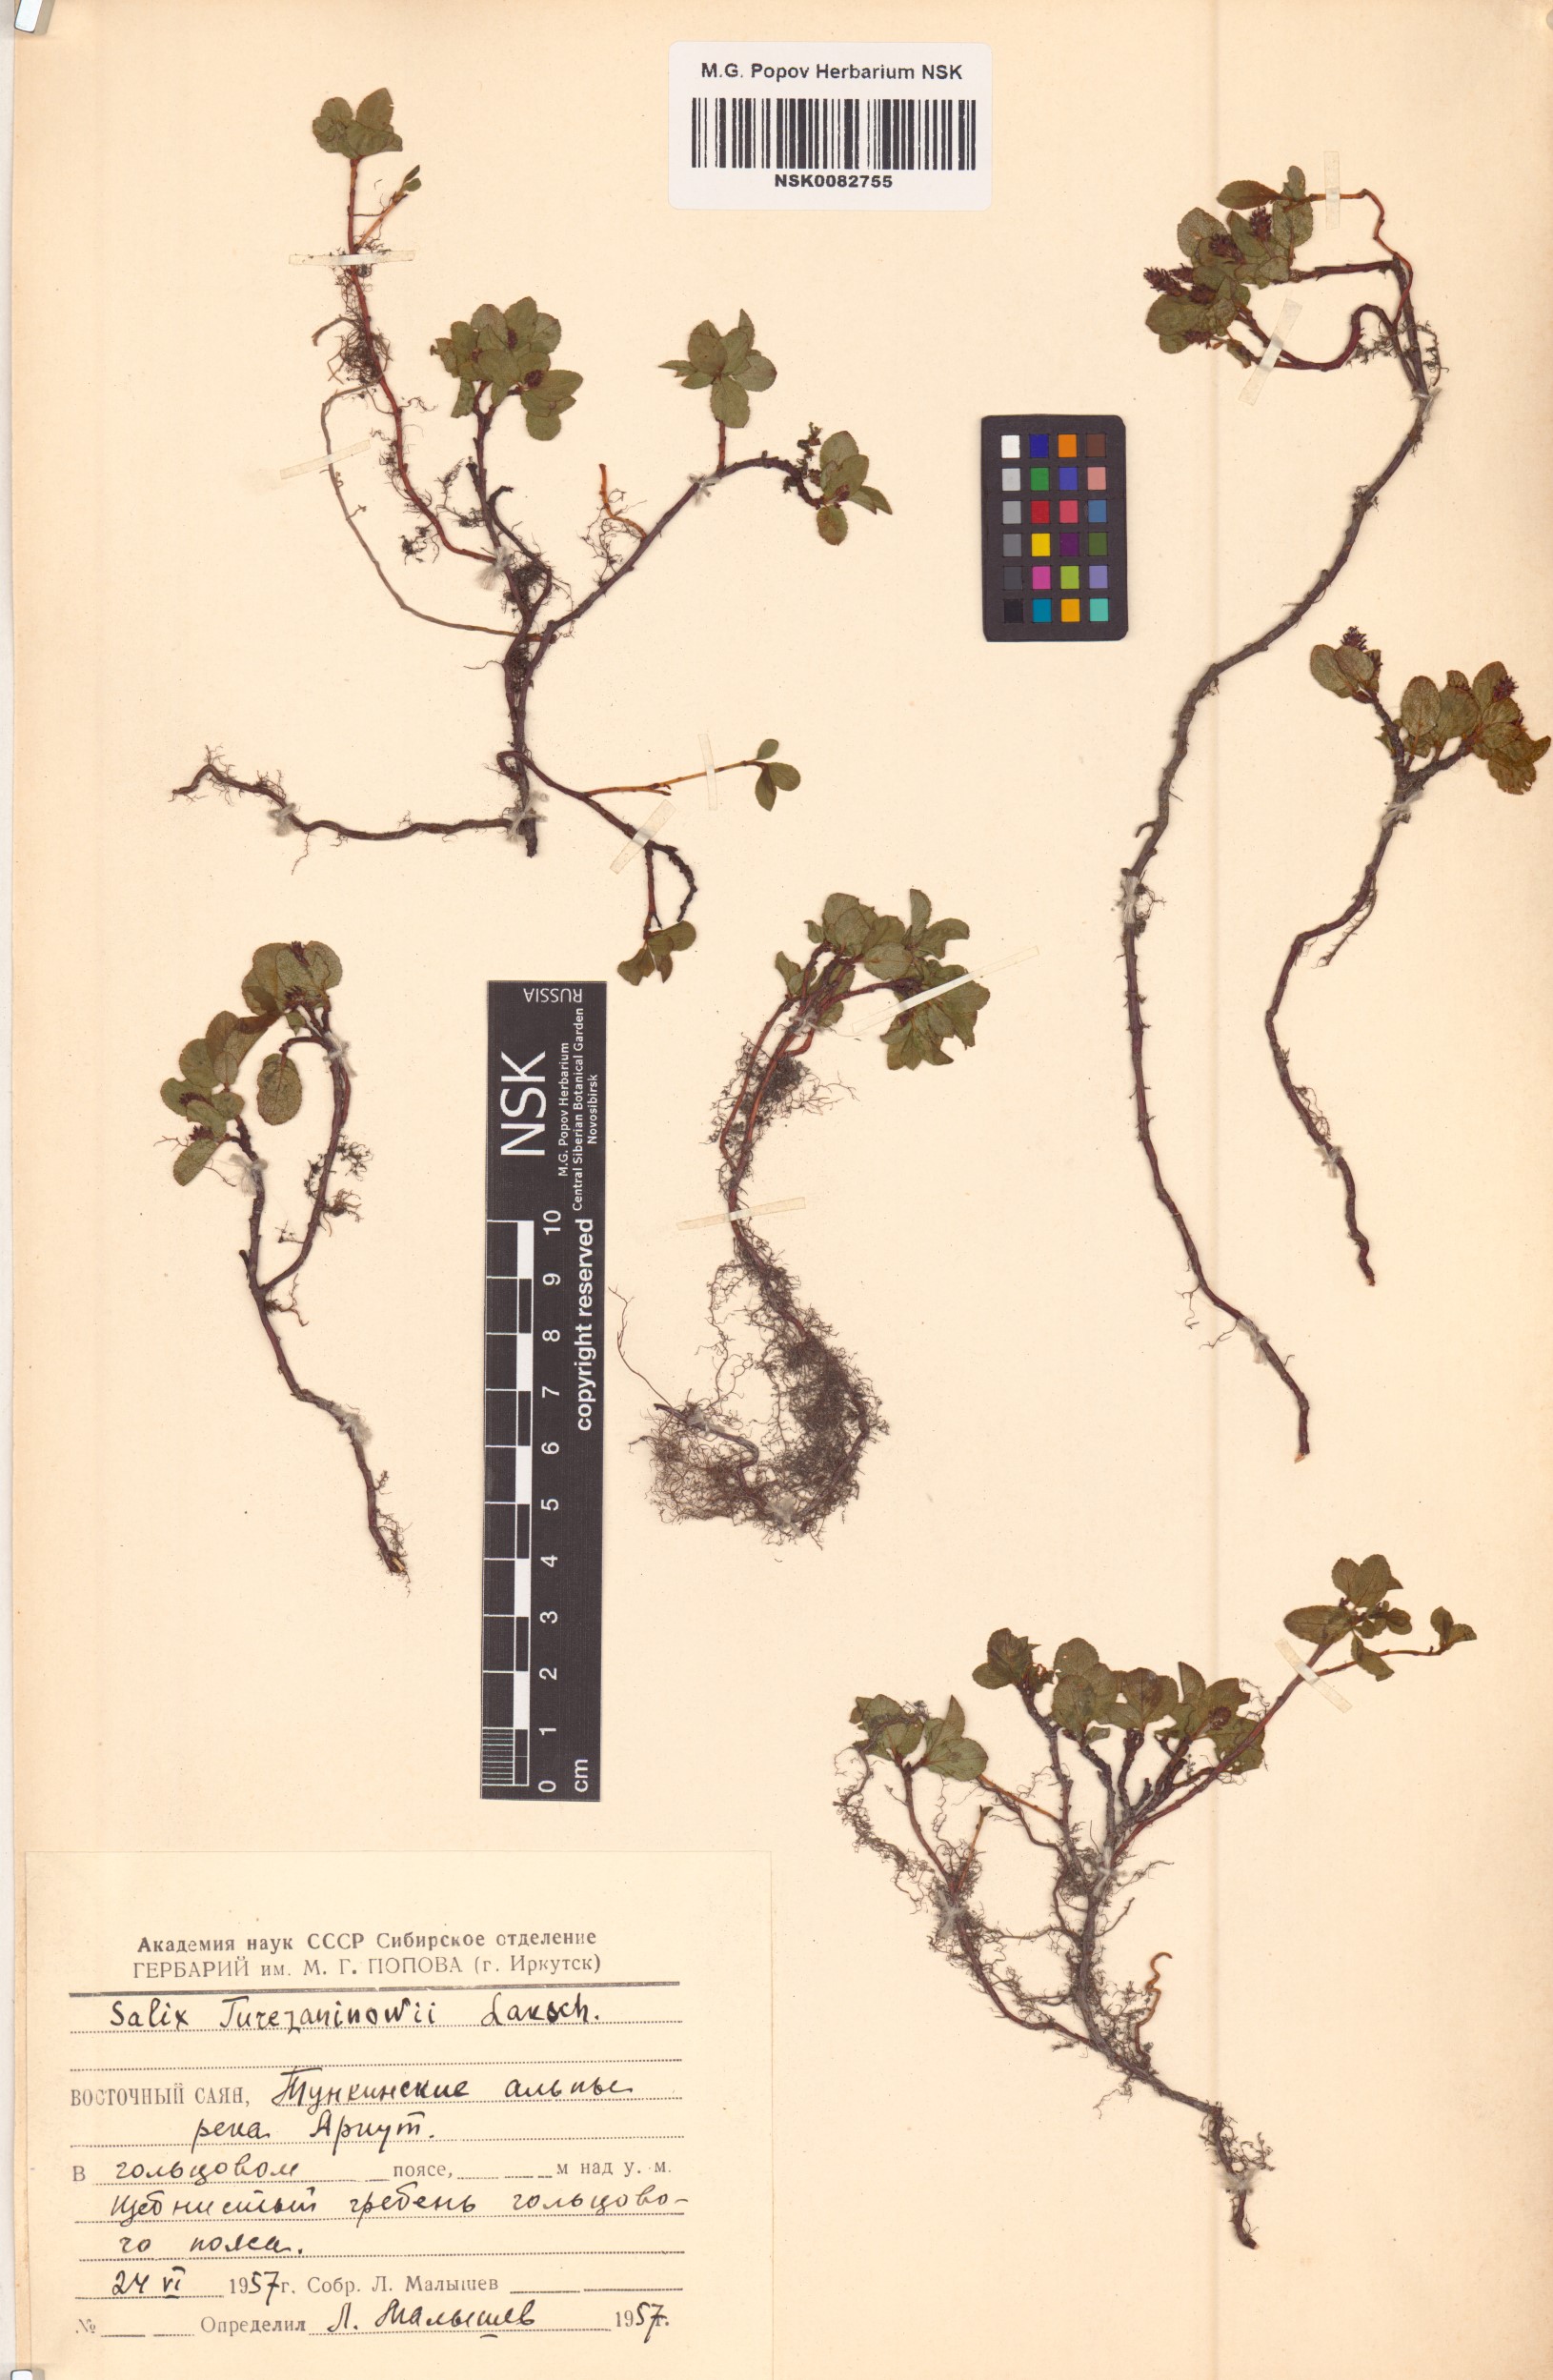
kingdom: Plantae
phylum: Tracheophyta
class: Magnoliopsida
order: Malpighiales
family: Salicaceae
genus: Salix
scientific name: Salix turczaninowii
